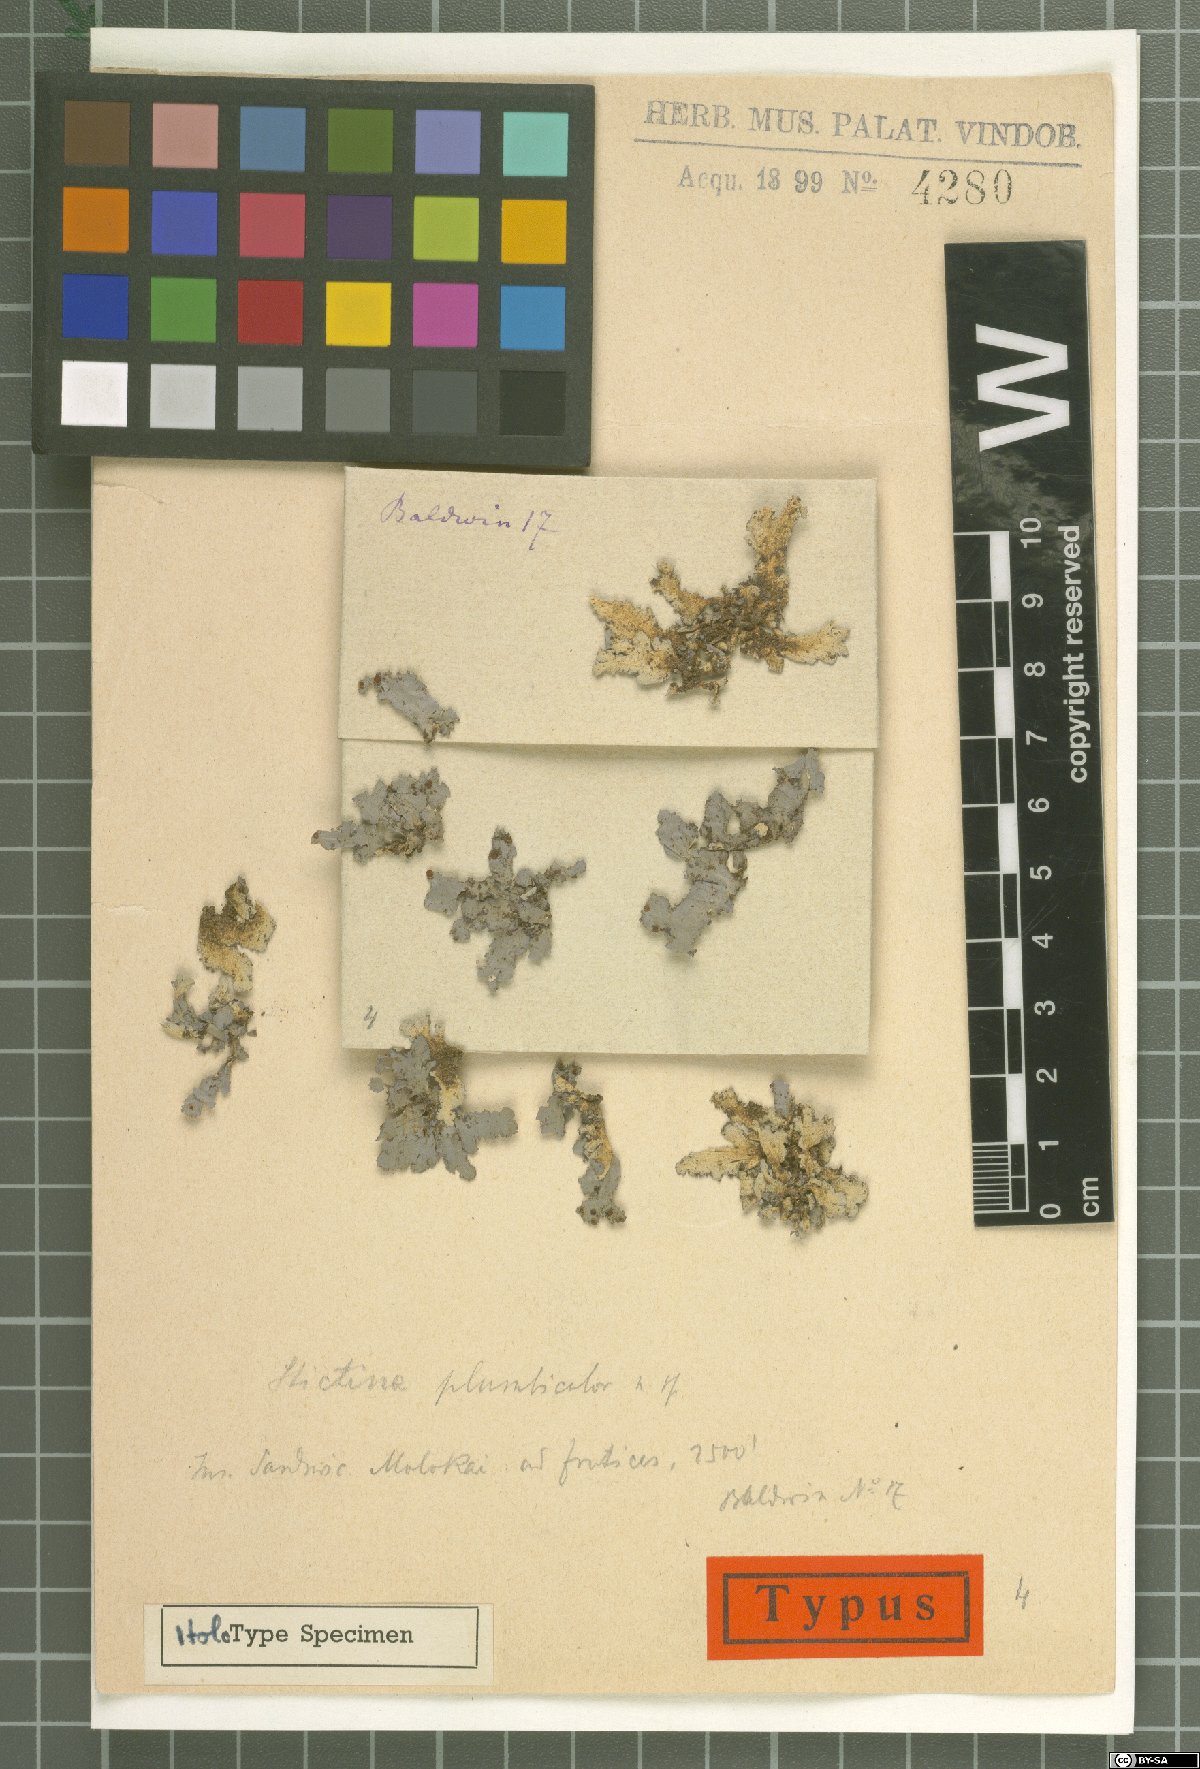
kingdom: Fungi
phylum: Ascomycota
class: Lecanoromycetes
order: Peltigerales
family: Lobariaceae
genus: Pseudocyphellaria
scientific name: Pseudocyphellaria
